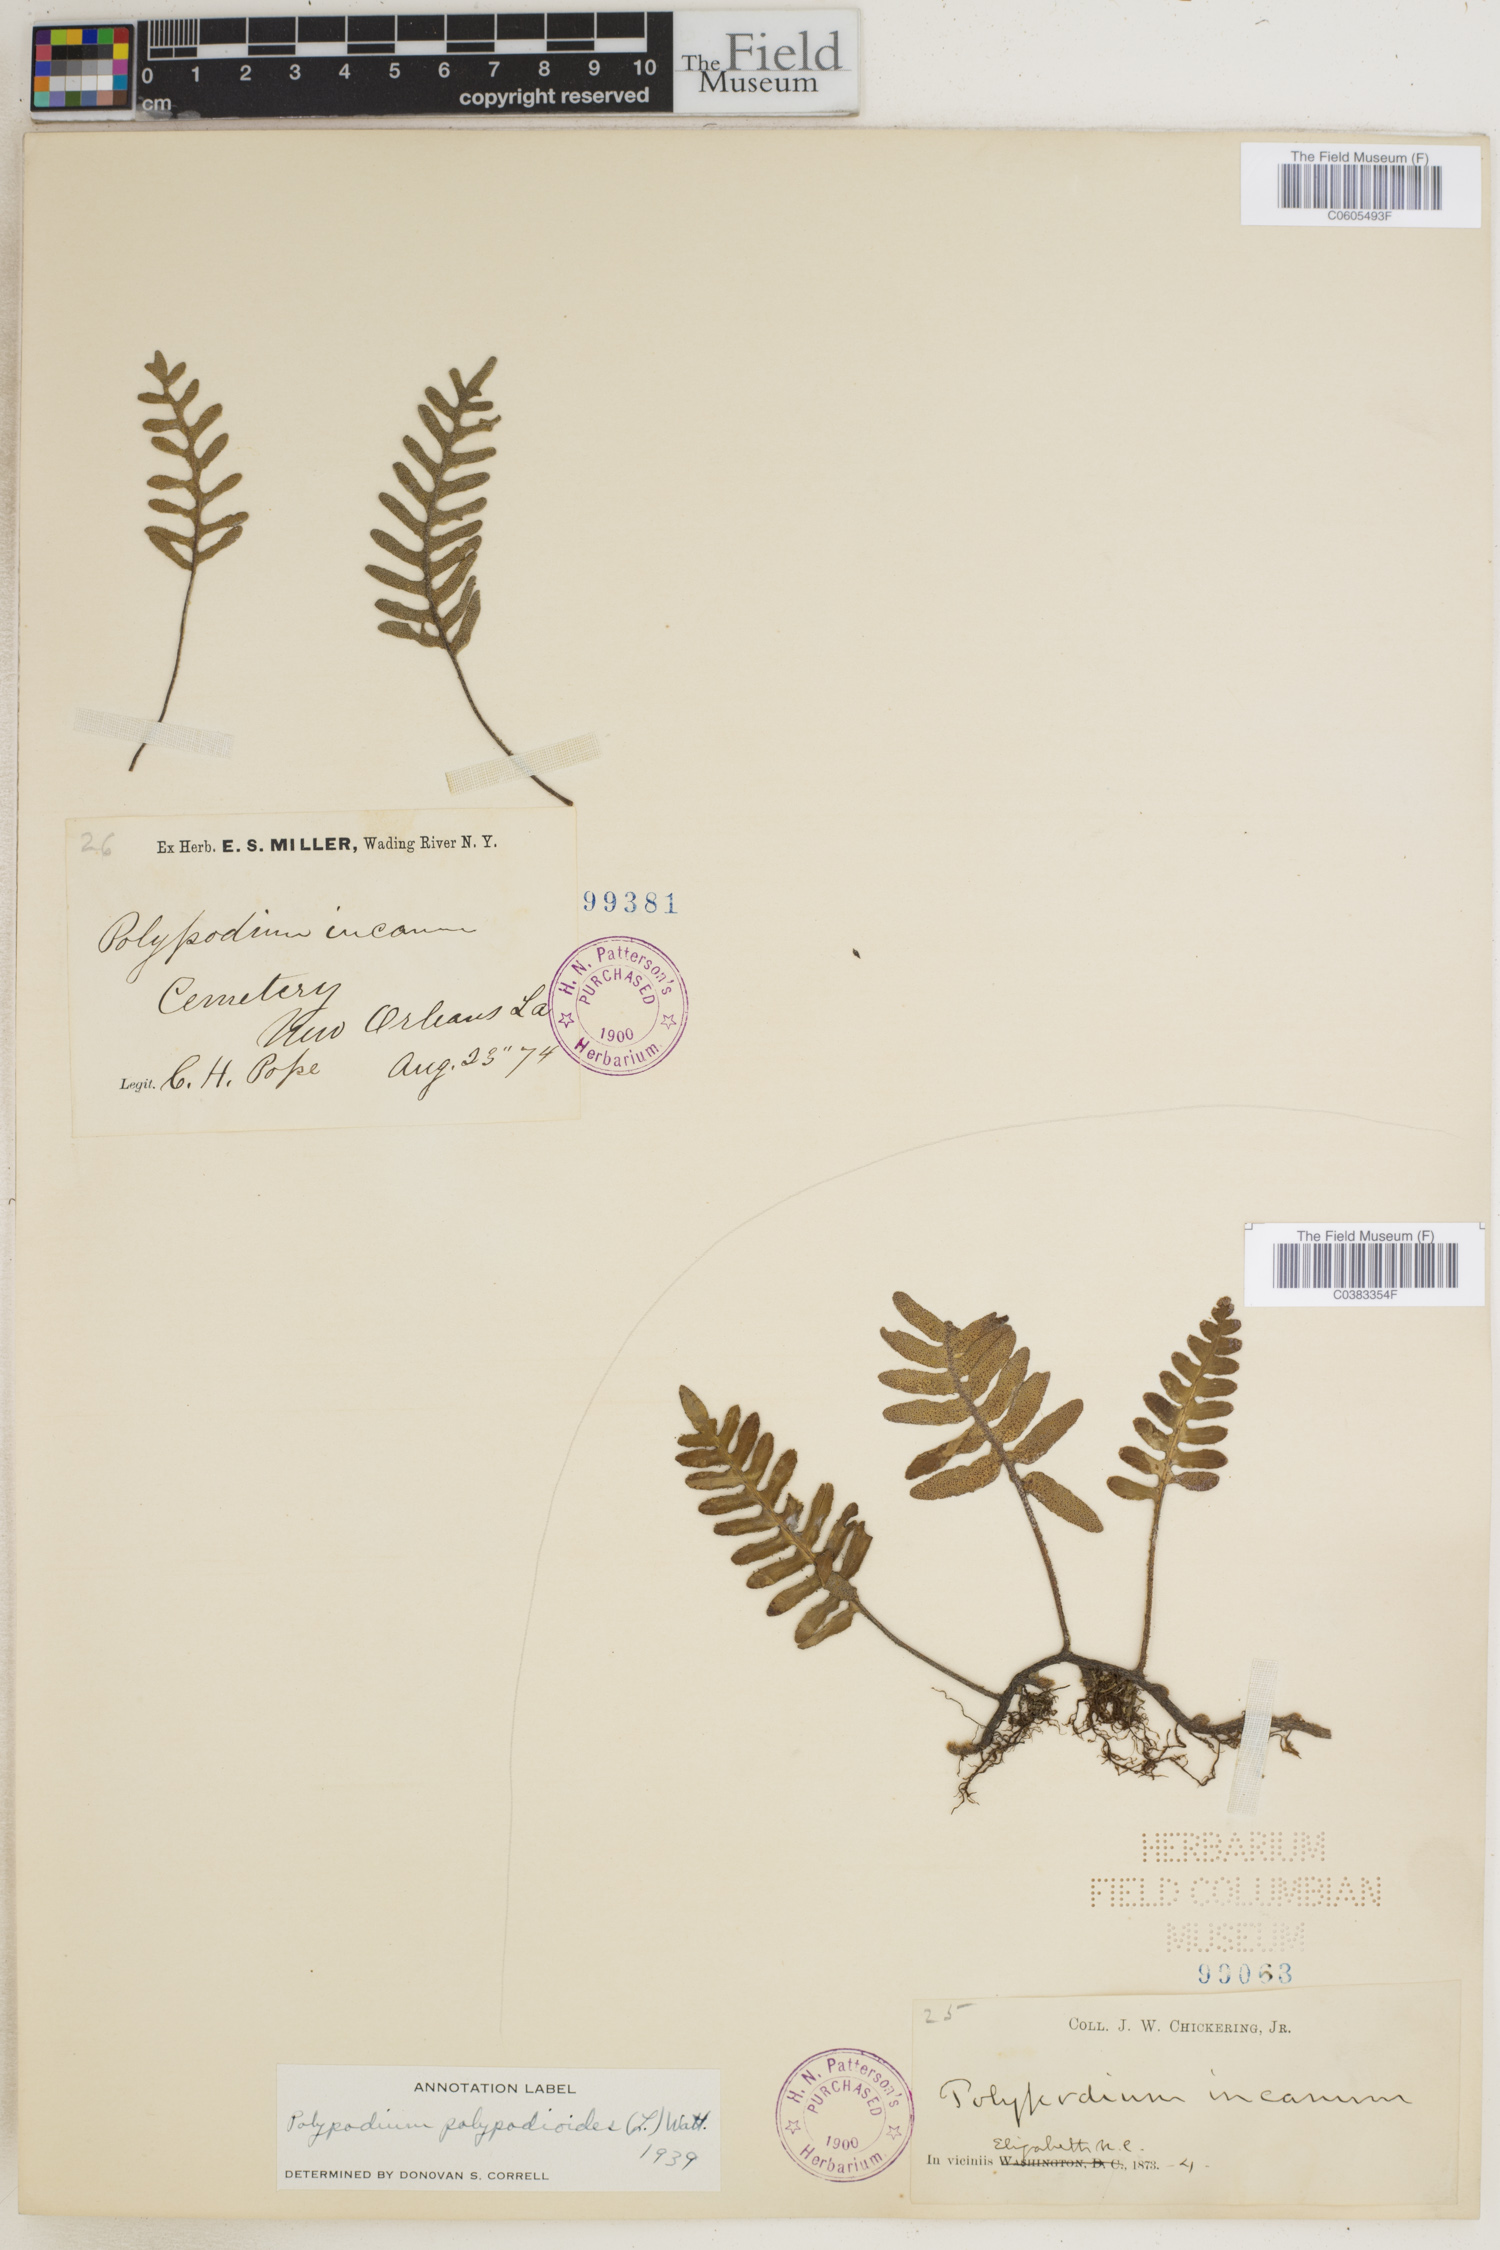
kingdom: Plantae
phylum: Tracheophyta
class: Polypodiopsida
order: Polypodiales
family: Polypodiaceae
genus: Pleopeltis
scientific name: Pleopeltis polypodioides
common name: Resurrection fern
